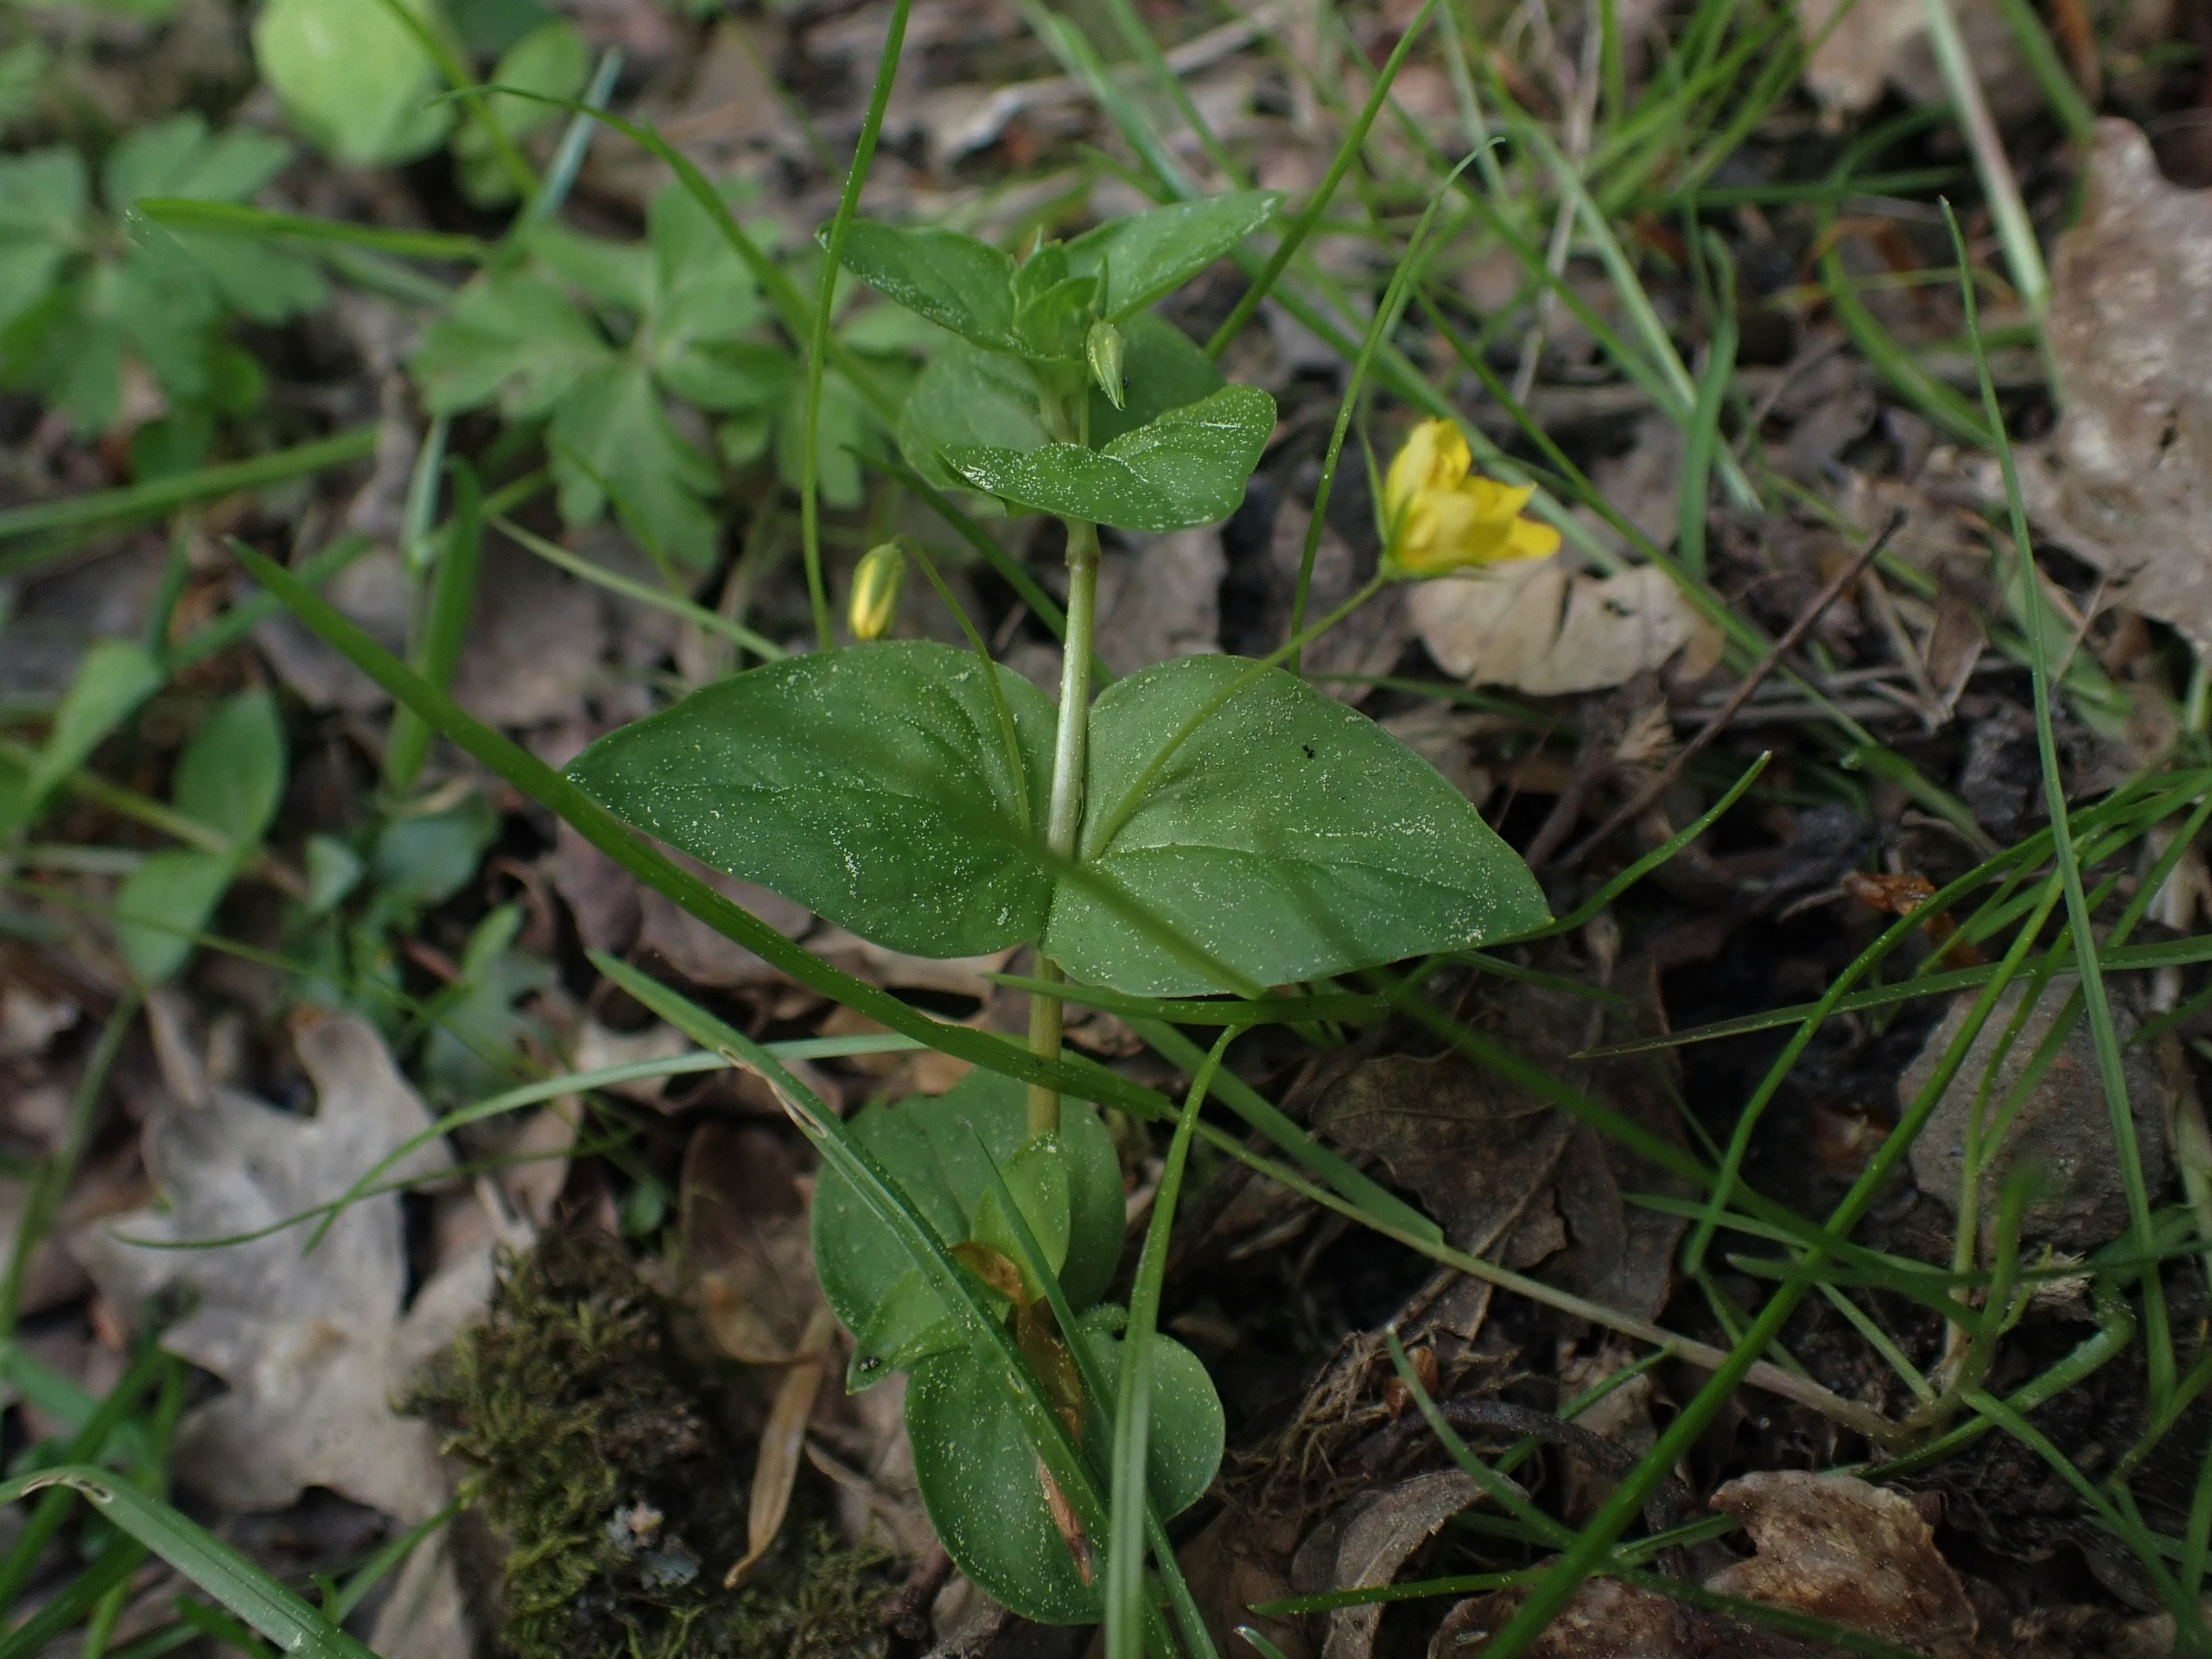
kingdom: Plantae
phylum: Tracheophyta
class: Magnoliopsida
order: Ericales
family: Primulaceae
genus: Lysimachia
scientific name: Lysimachia nemorum
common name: Lund-fredløs
